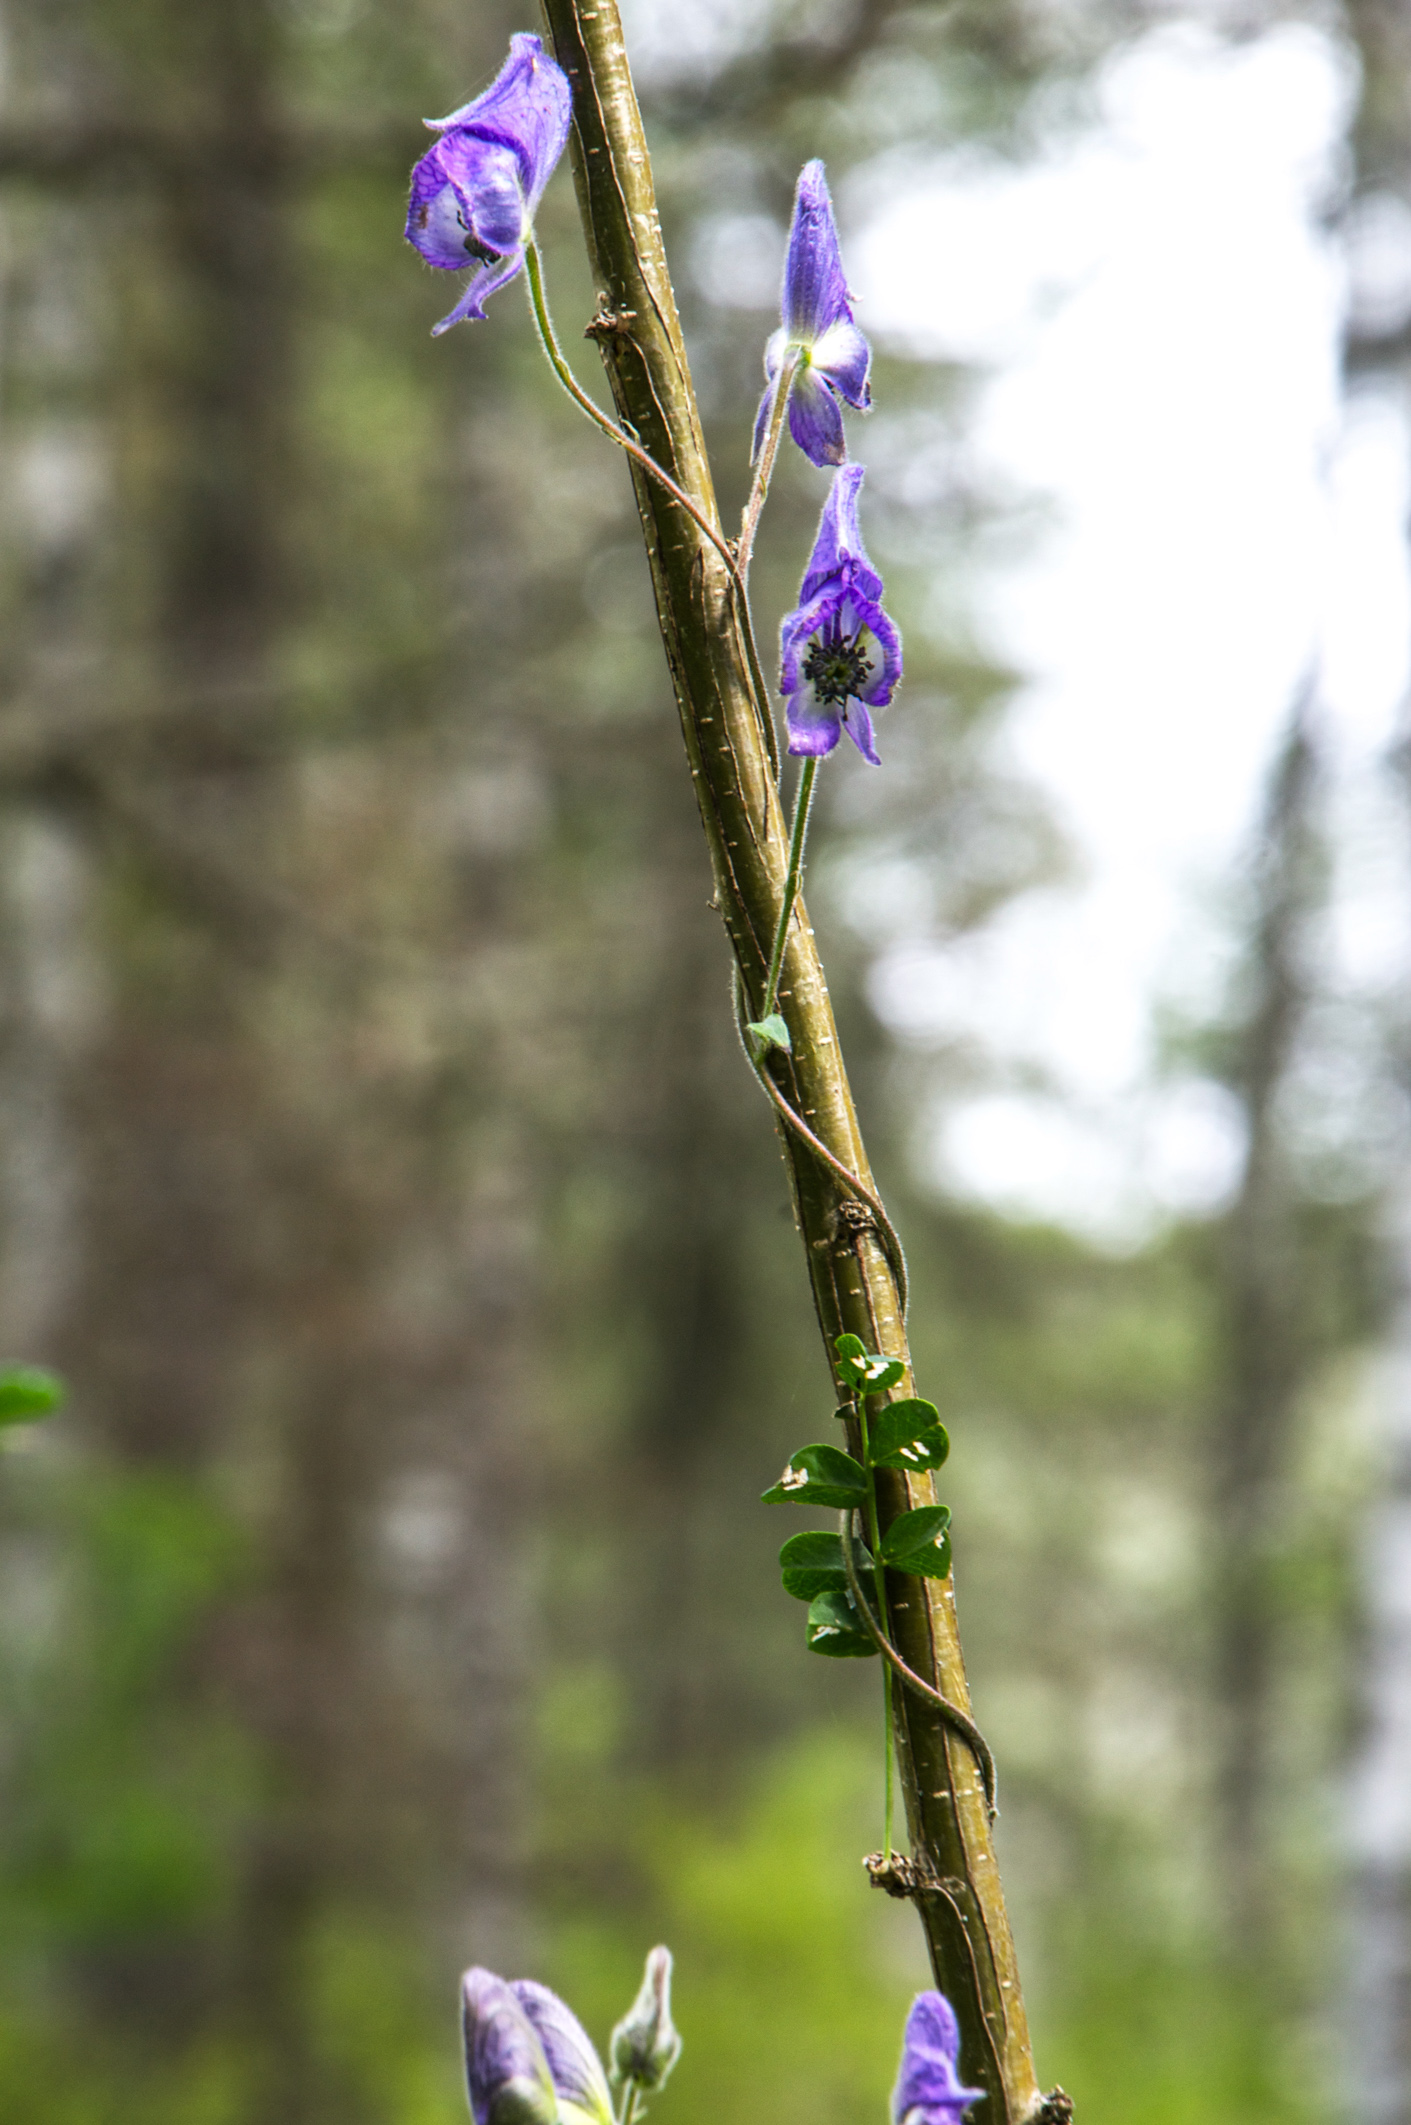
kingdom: Plantae
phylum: Tracheophyta
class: Magnoliopsida
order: Ranunculales
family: Ranunculaceae
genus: Aconitum
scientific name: Aconitum volubile
